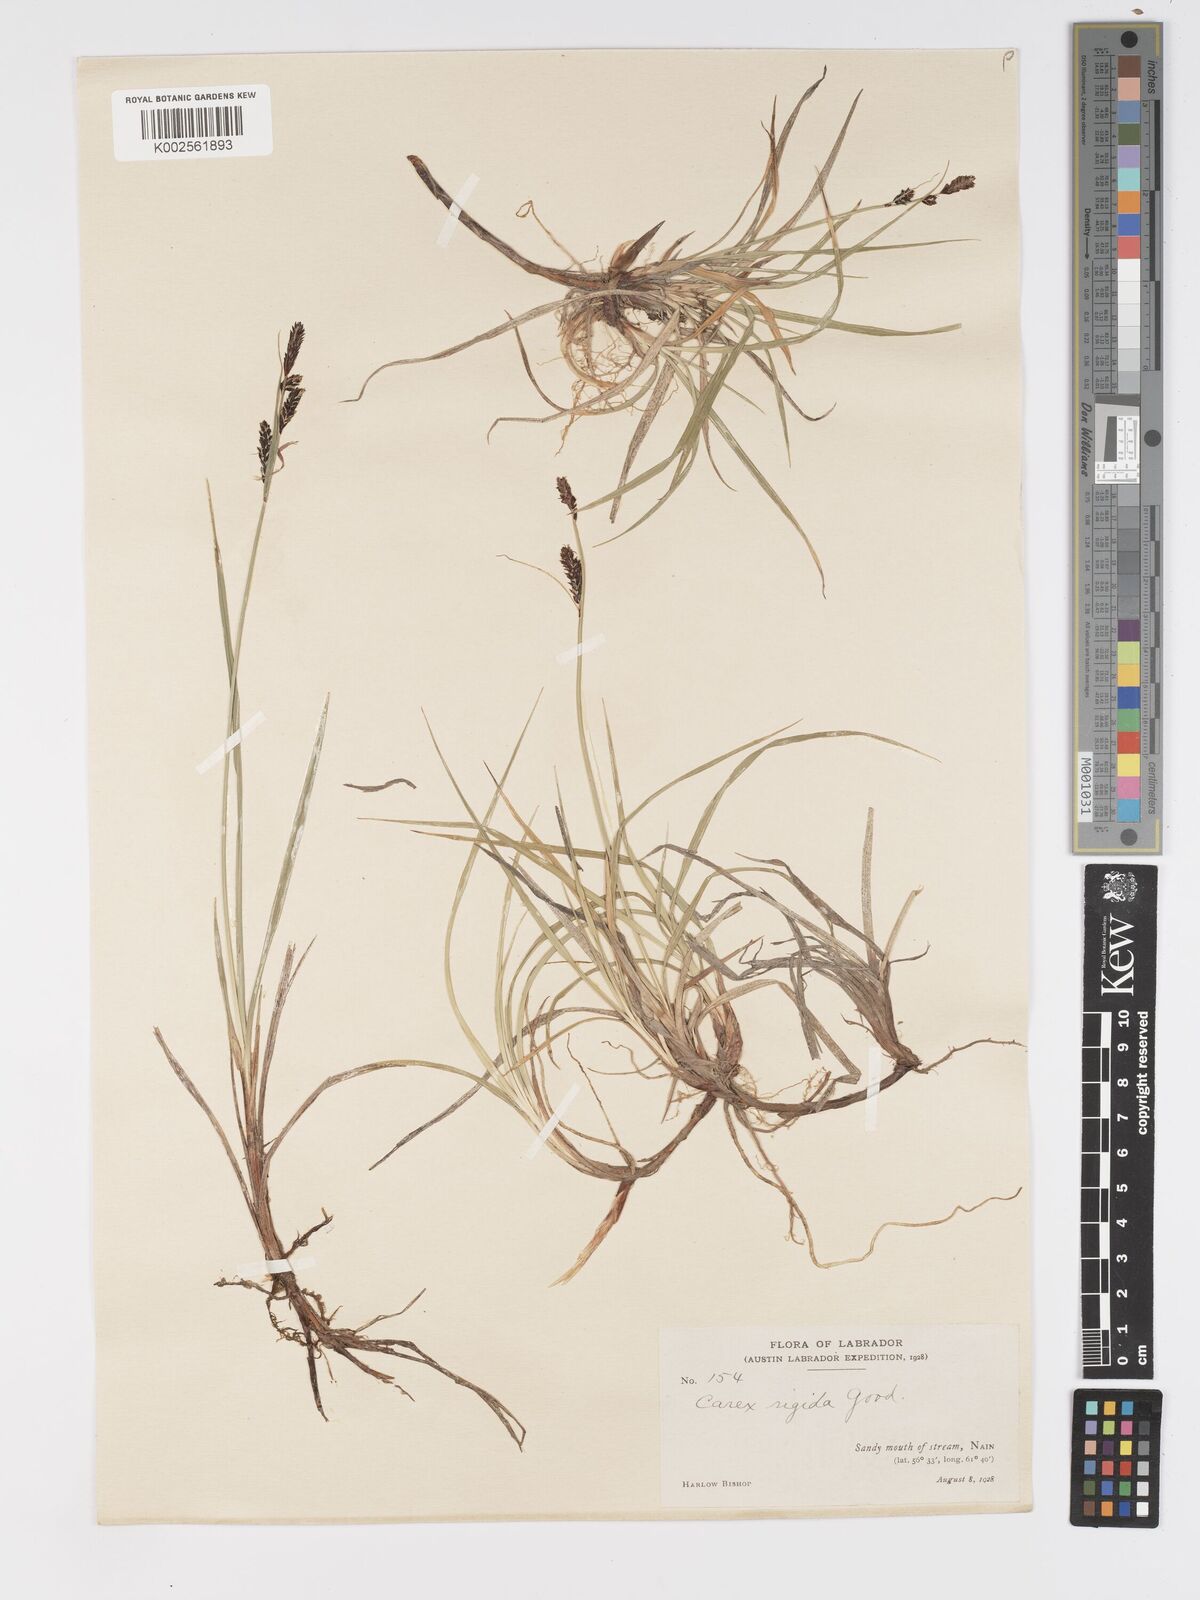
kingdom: Plantae
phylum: Tracheophyta
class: Liliopsida
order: Poales
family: Cyperaceae
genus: Carex
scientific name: Carex bigelowii
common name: Stiff sedge
